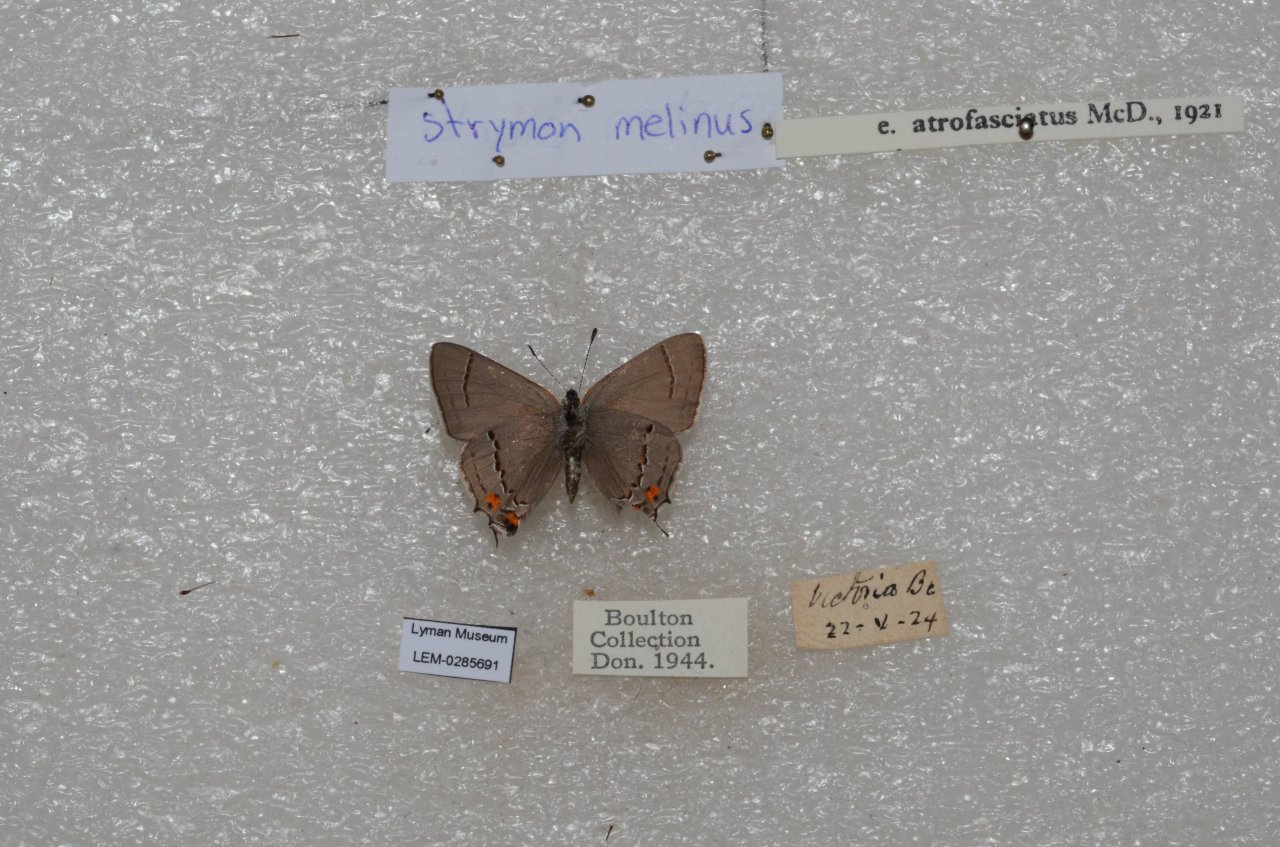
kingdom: Animalia
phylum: Arthropoda
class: Insecta
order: Lepidoptera
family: Lycaenidae
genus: Strymon
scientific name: Strymon melinus
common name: Gray Hairstreak
